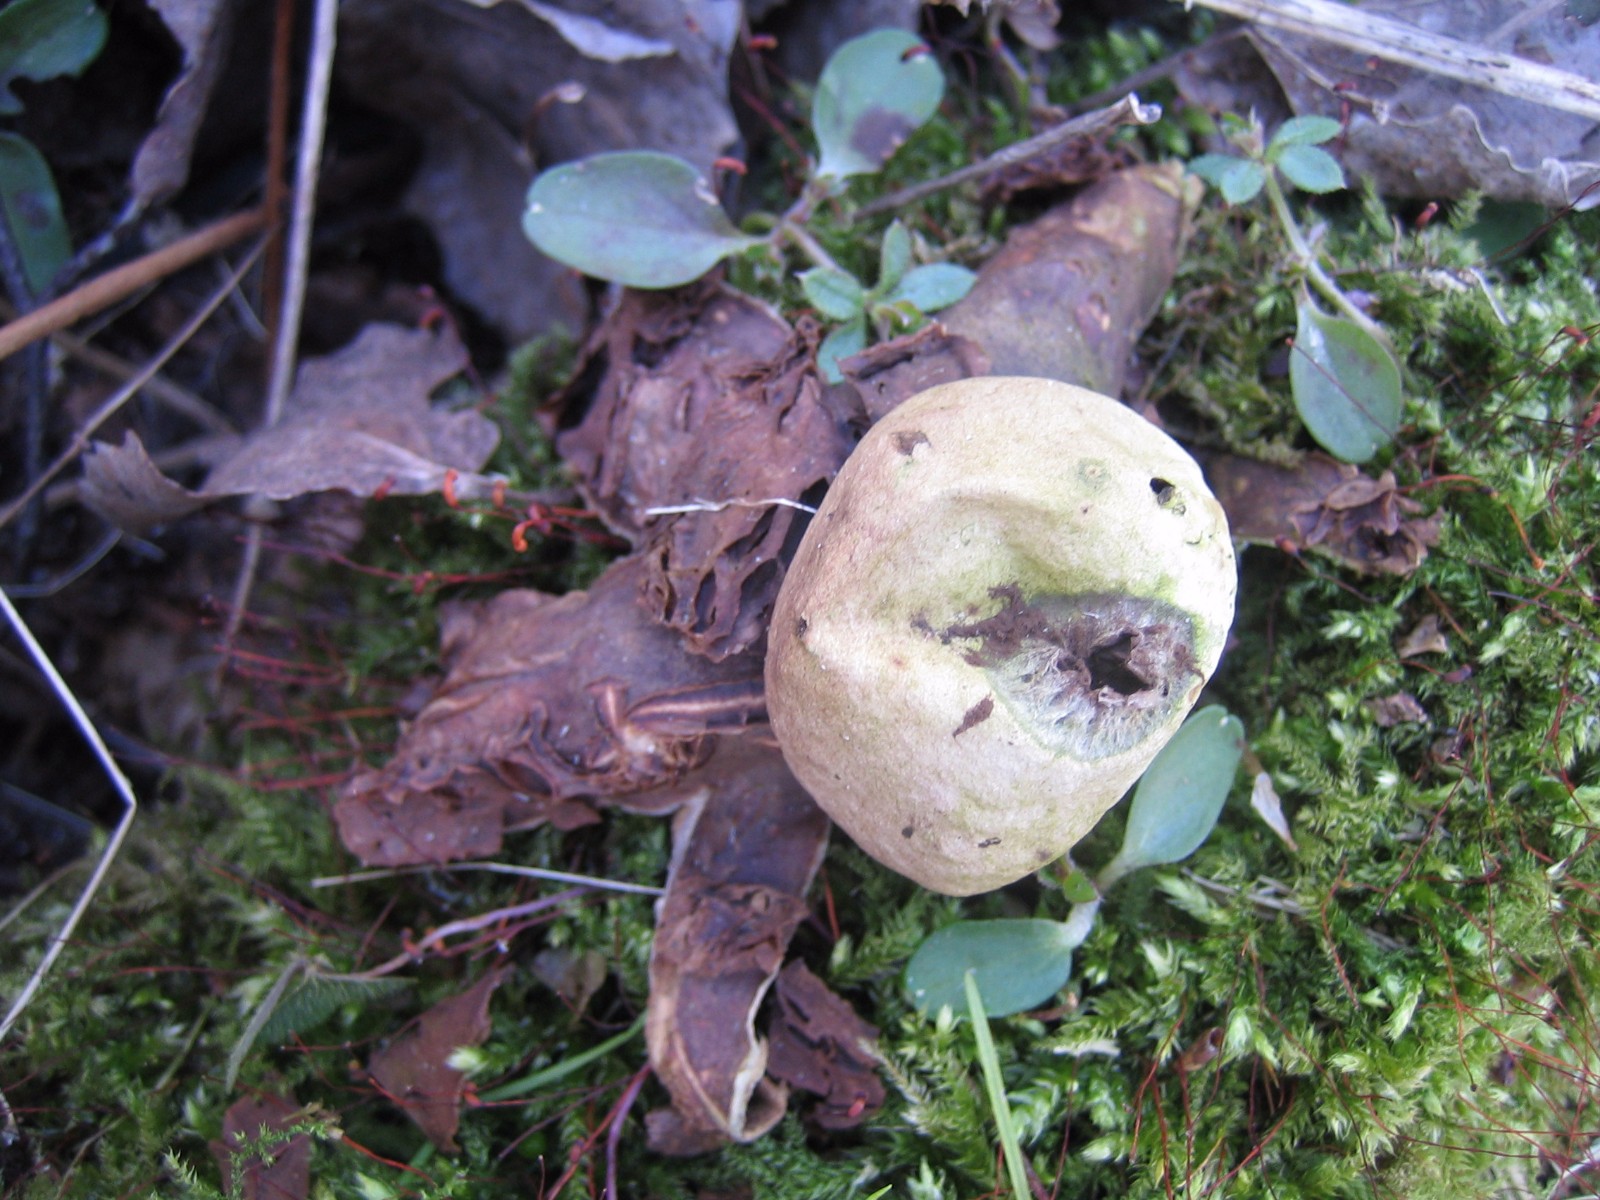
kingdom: Fungi
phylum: Basidiomycota
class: Agaricomycetes
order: Geastrales
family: Geastraceae
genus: Geastrum
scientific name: Geastrum michelianum
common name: kødet stjernebold
